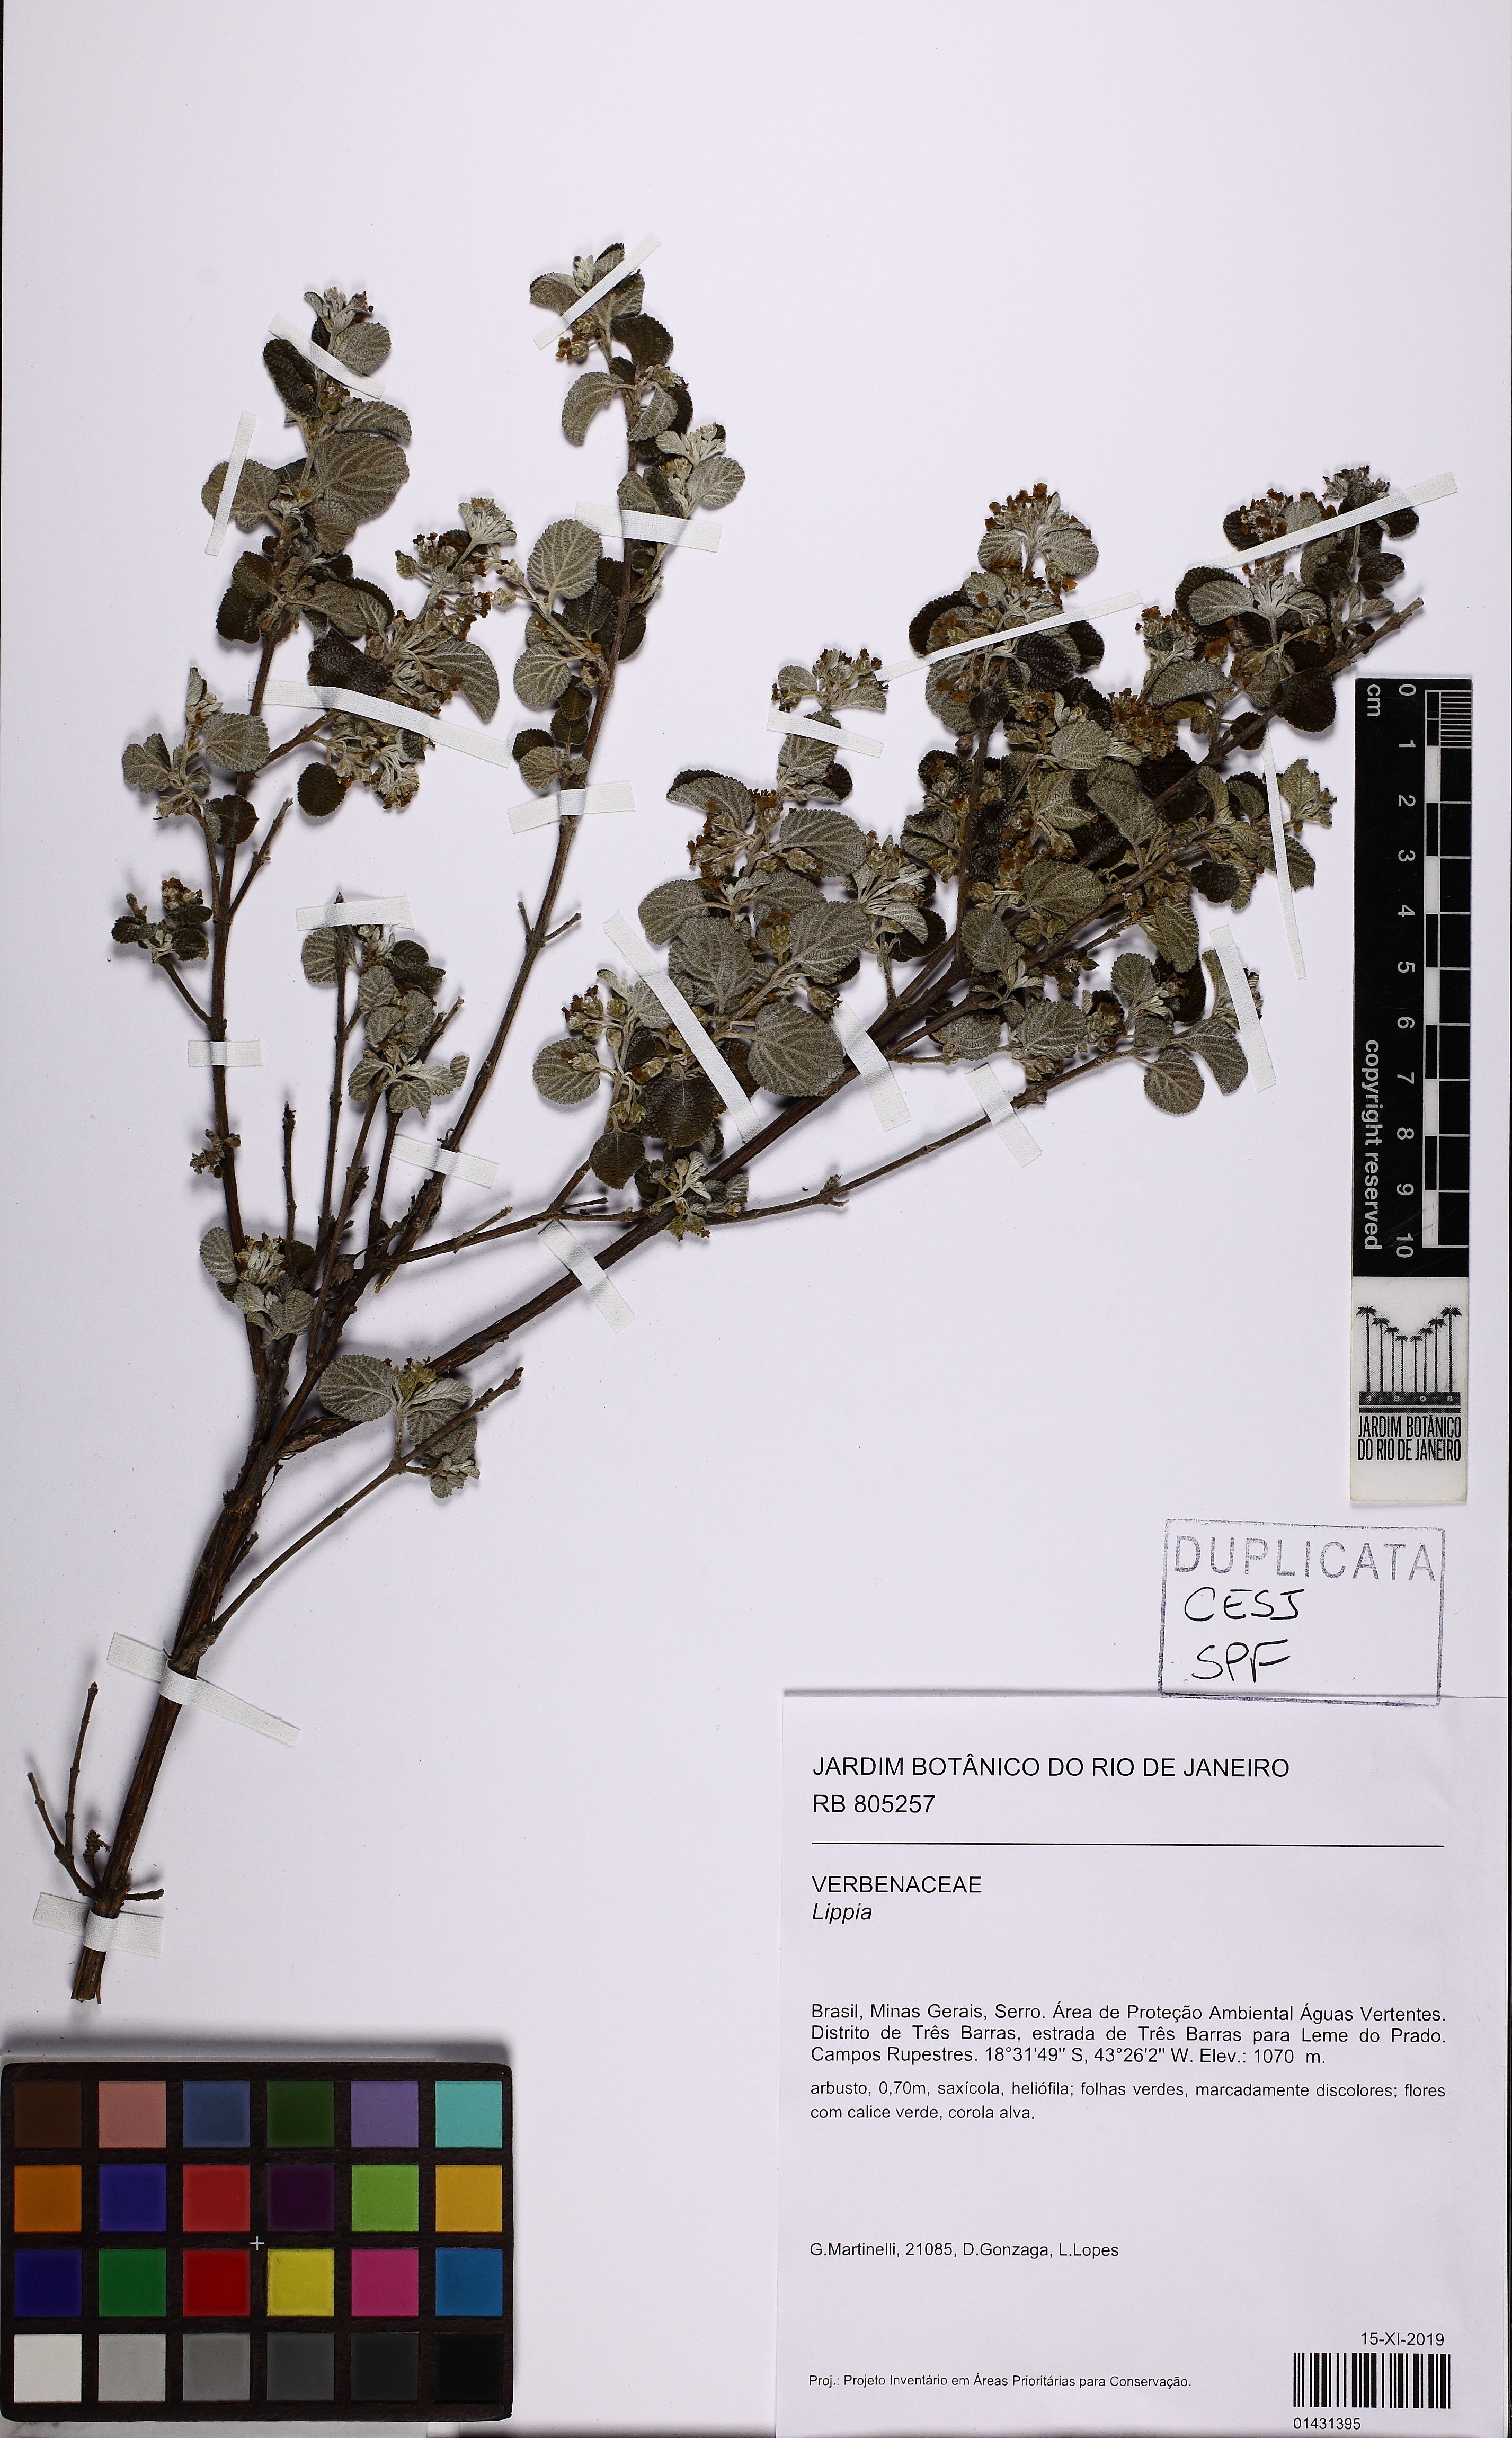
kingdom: Plantae
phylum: Tracheophyta
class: Magnoliopsida
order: Lamiales
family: Verbenaceae
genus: Lippia
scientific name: Lippia
